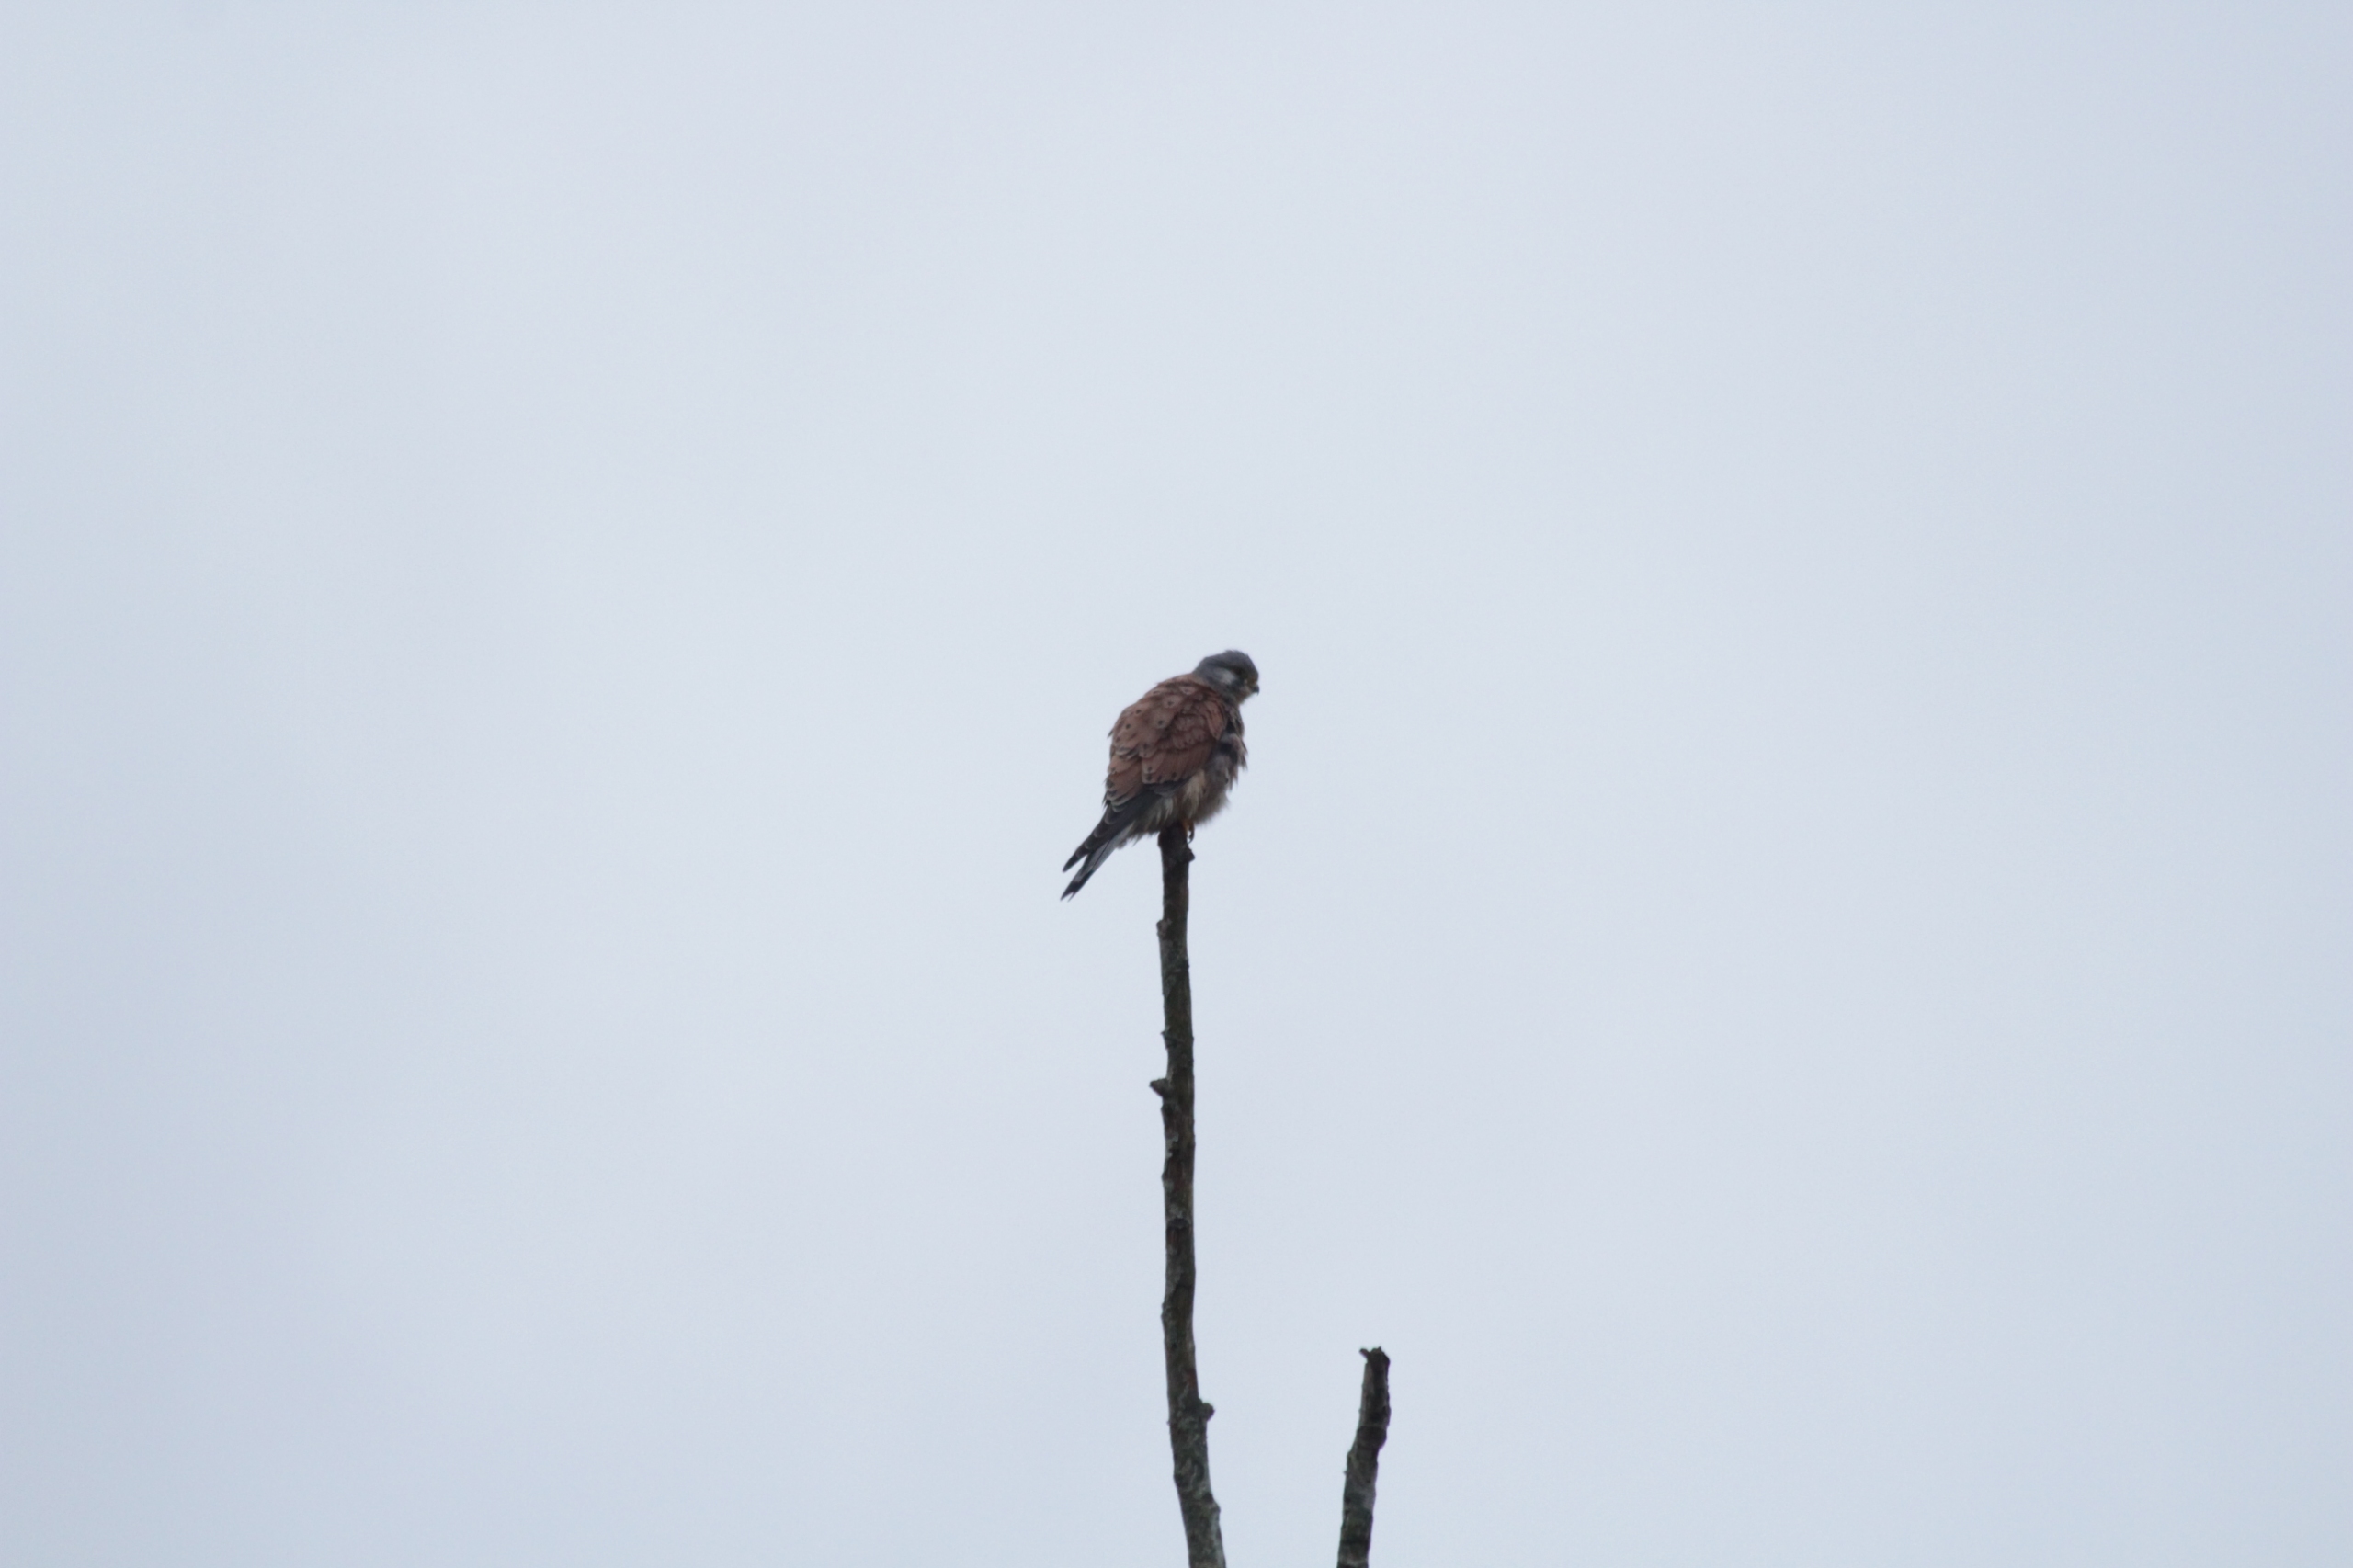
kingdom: Animalia
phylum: Chordata
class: Aves
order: Falconiformes
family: Falconidae
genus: Falco
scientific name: Falco tinnunculus
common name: Tårnfalk
